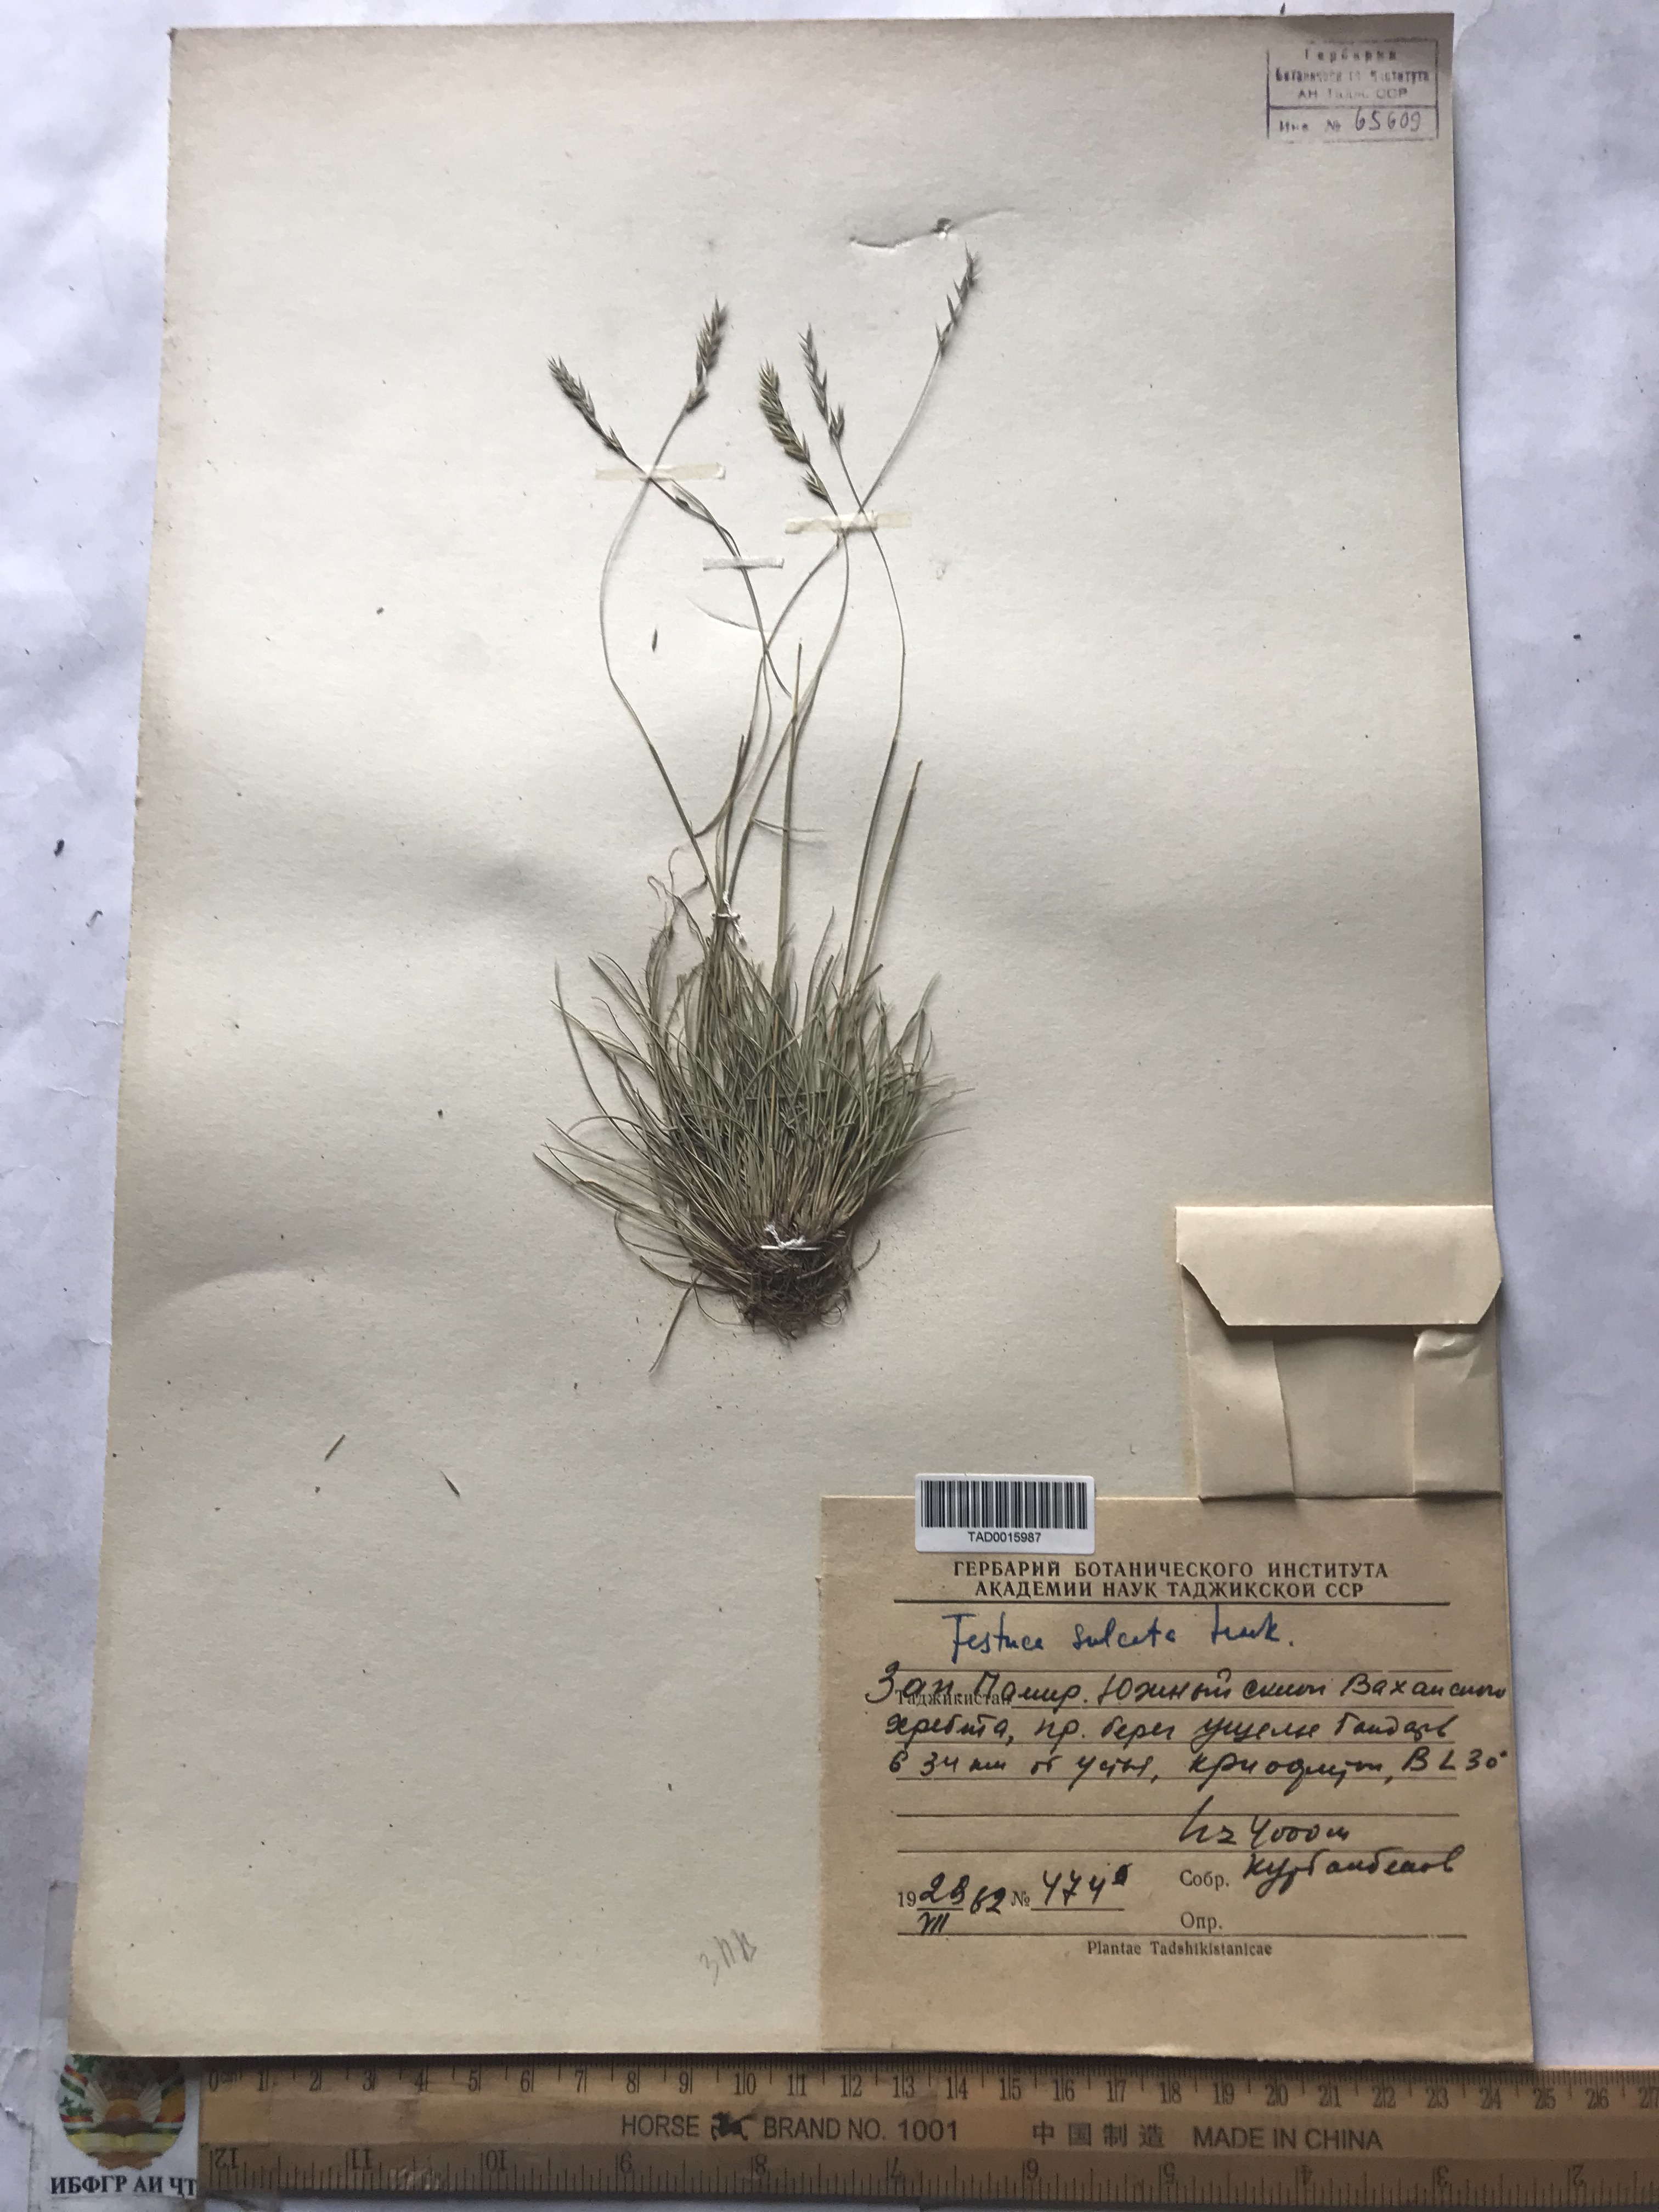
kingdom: Plantae
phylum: Tracheophyta
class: Liliopsida
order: Poales
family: Poaceae
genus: Festuca
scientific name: Festuca sulcata
